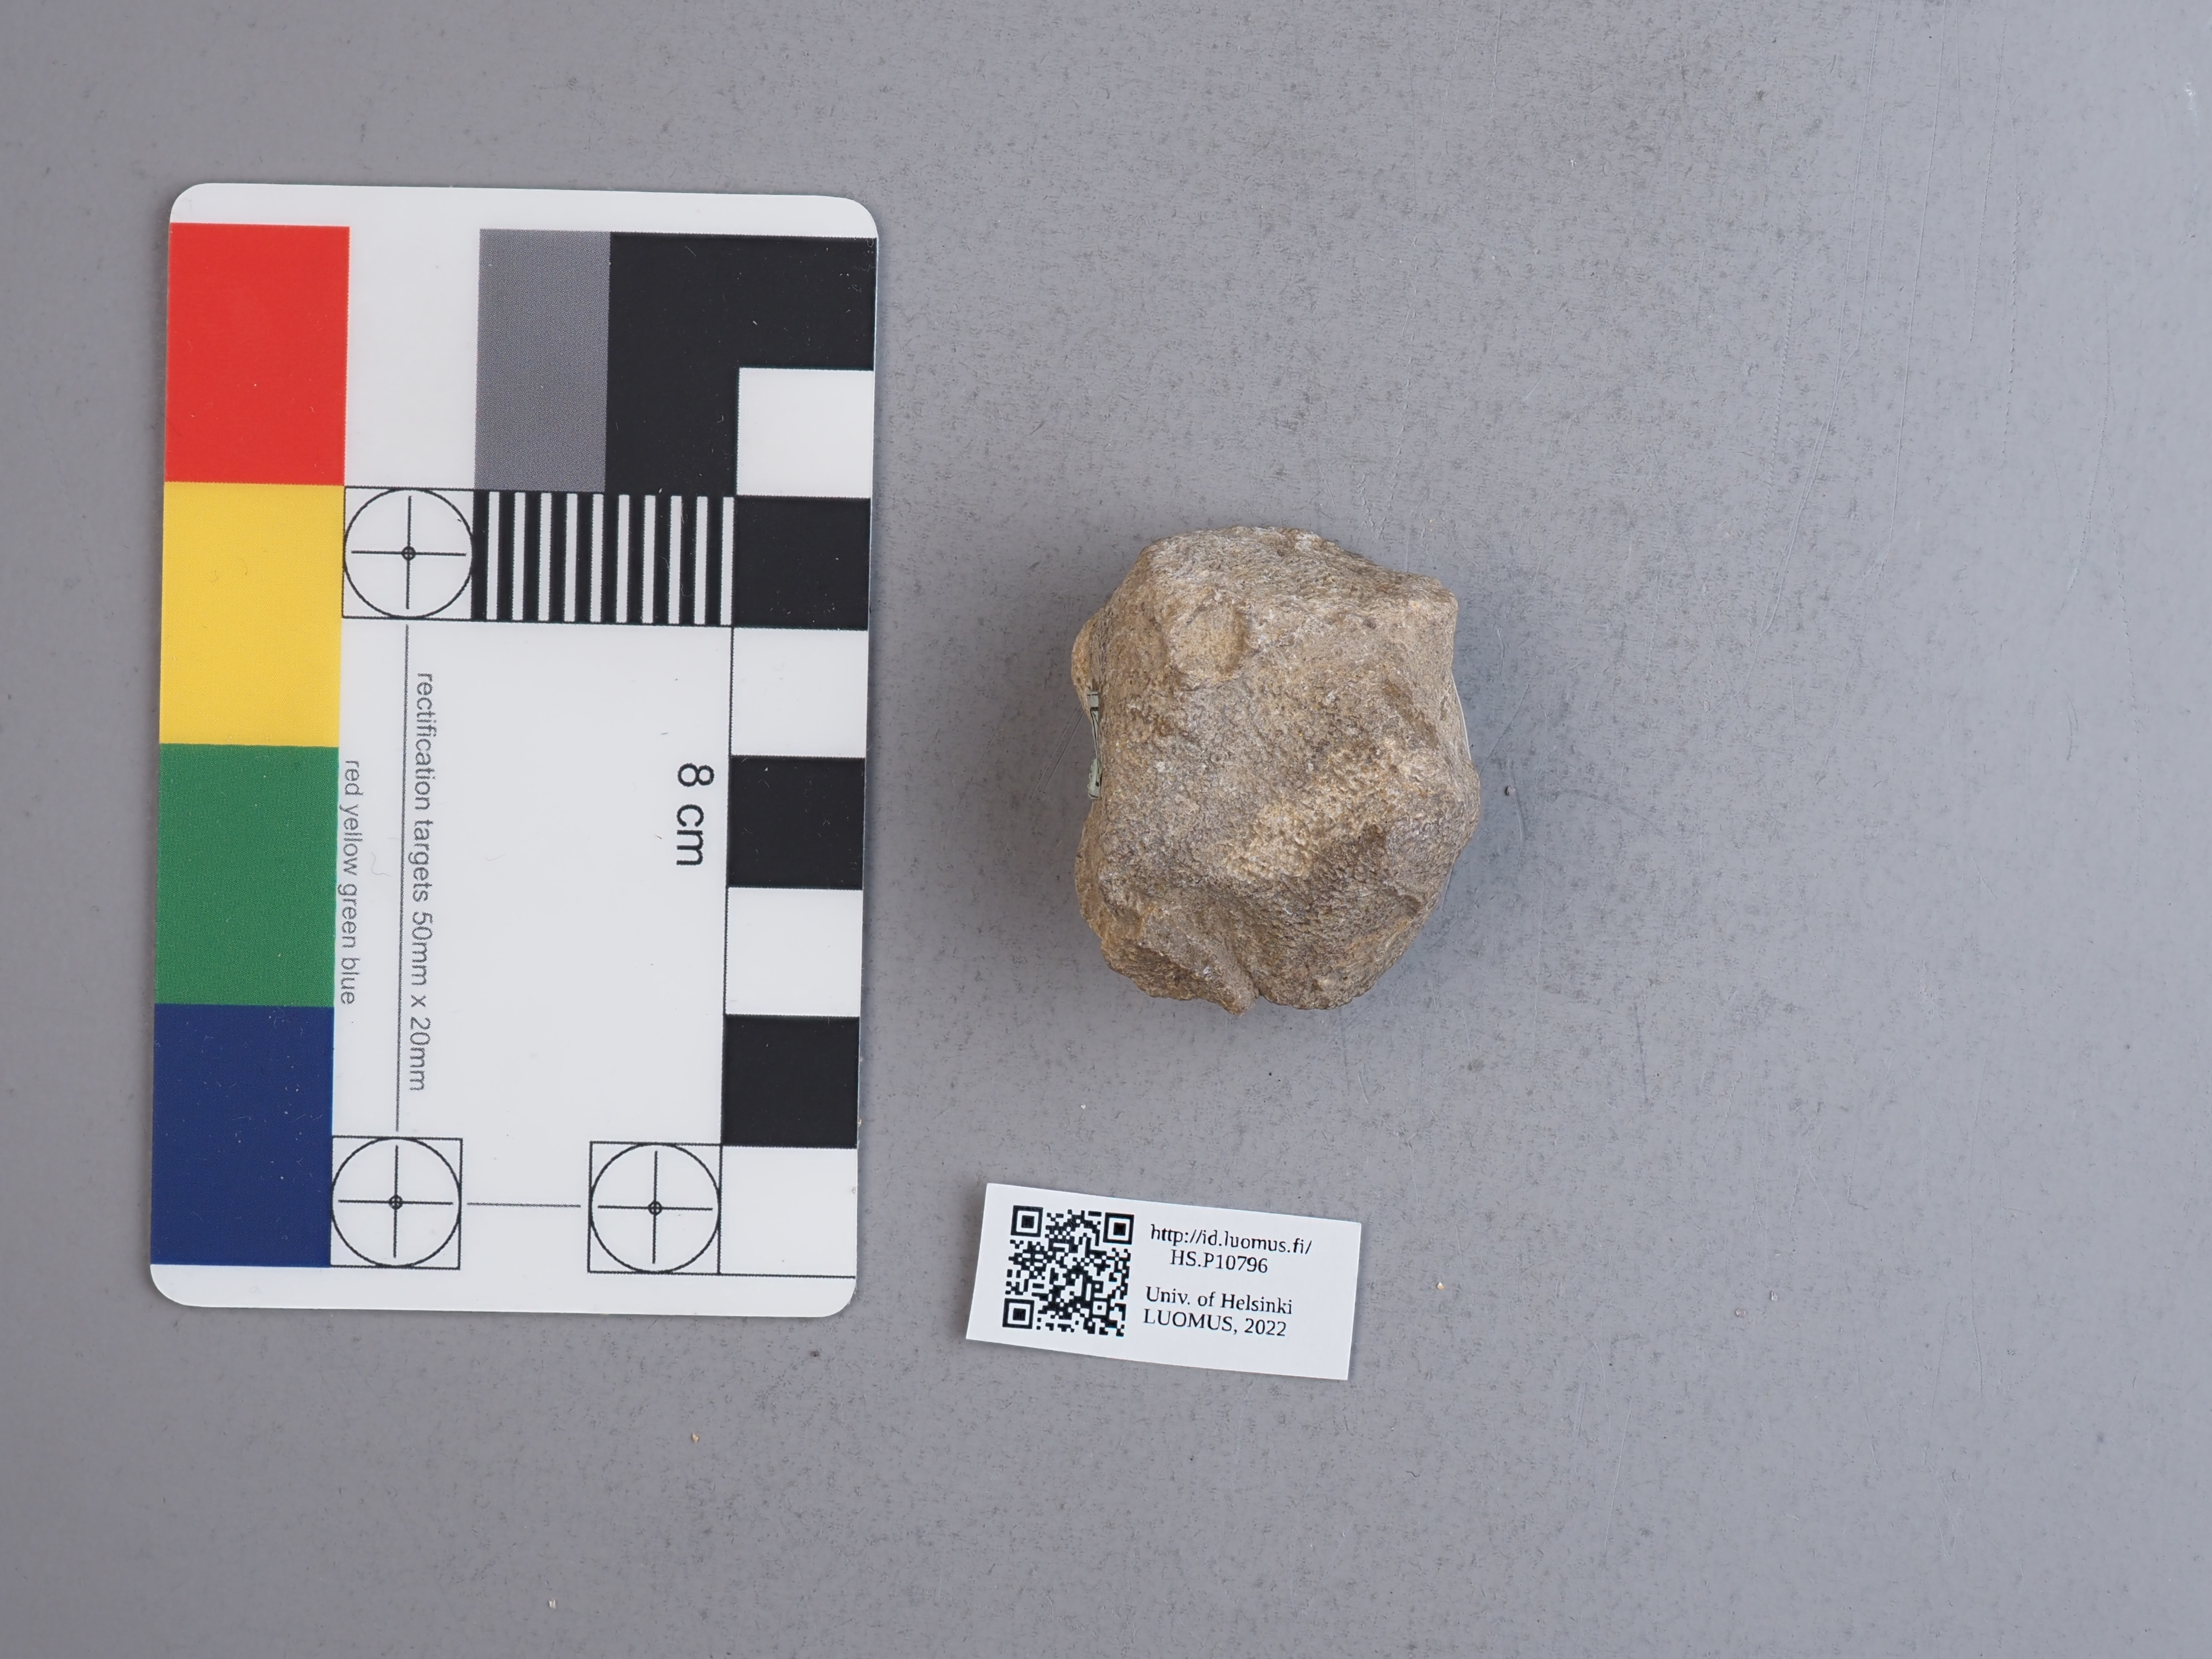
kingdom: Animalia
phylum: Cnidaria
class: Anthozoa
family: Alveolitidae
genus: Alveolites
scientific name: Alveolites suborbicularis
